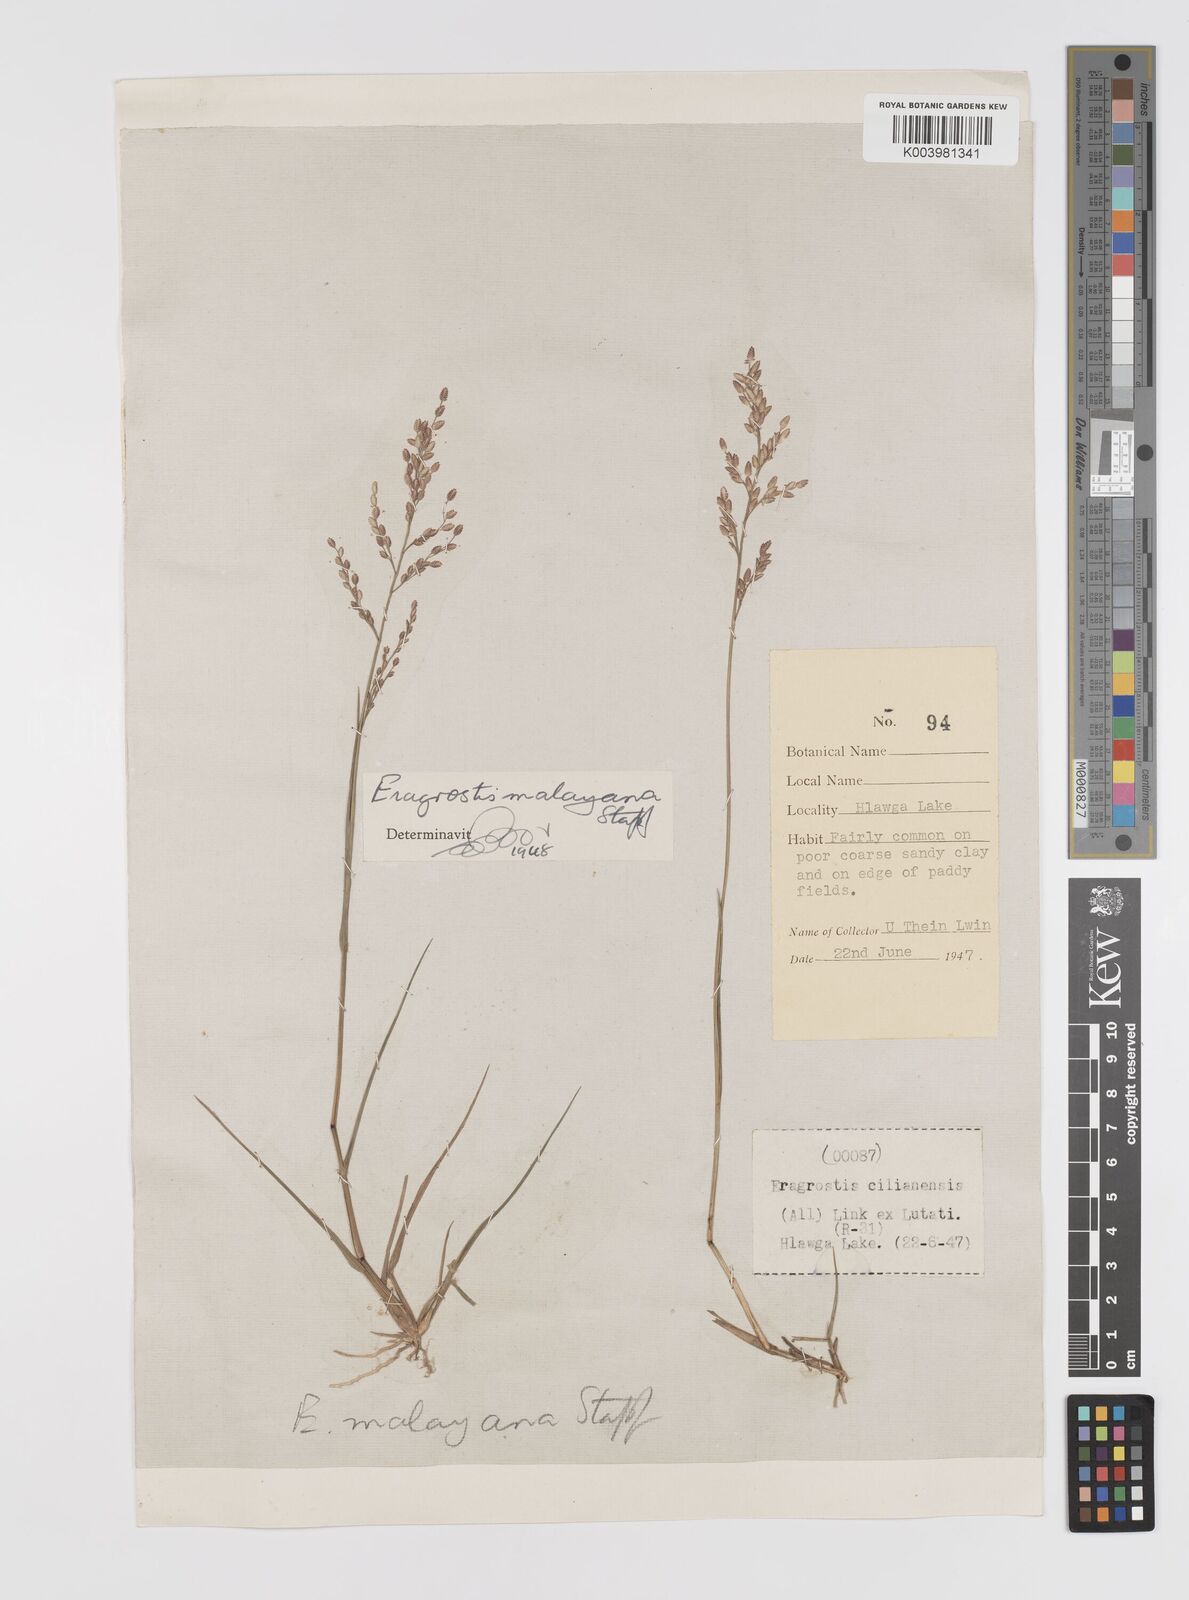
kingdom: Plantae
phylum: Tracheophyta
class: Liliopsida
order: Poales
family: Poaceae
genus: Eragrostis
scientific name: Eragrostis montana
